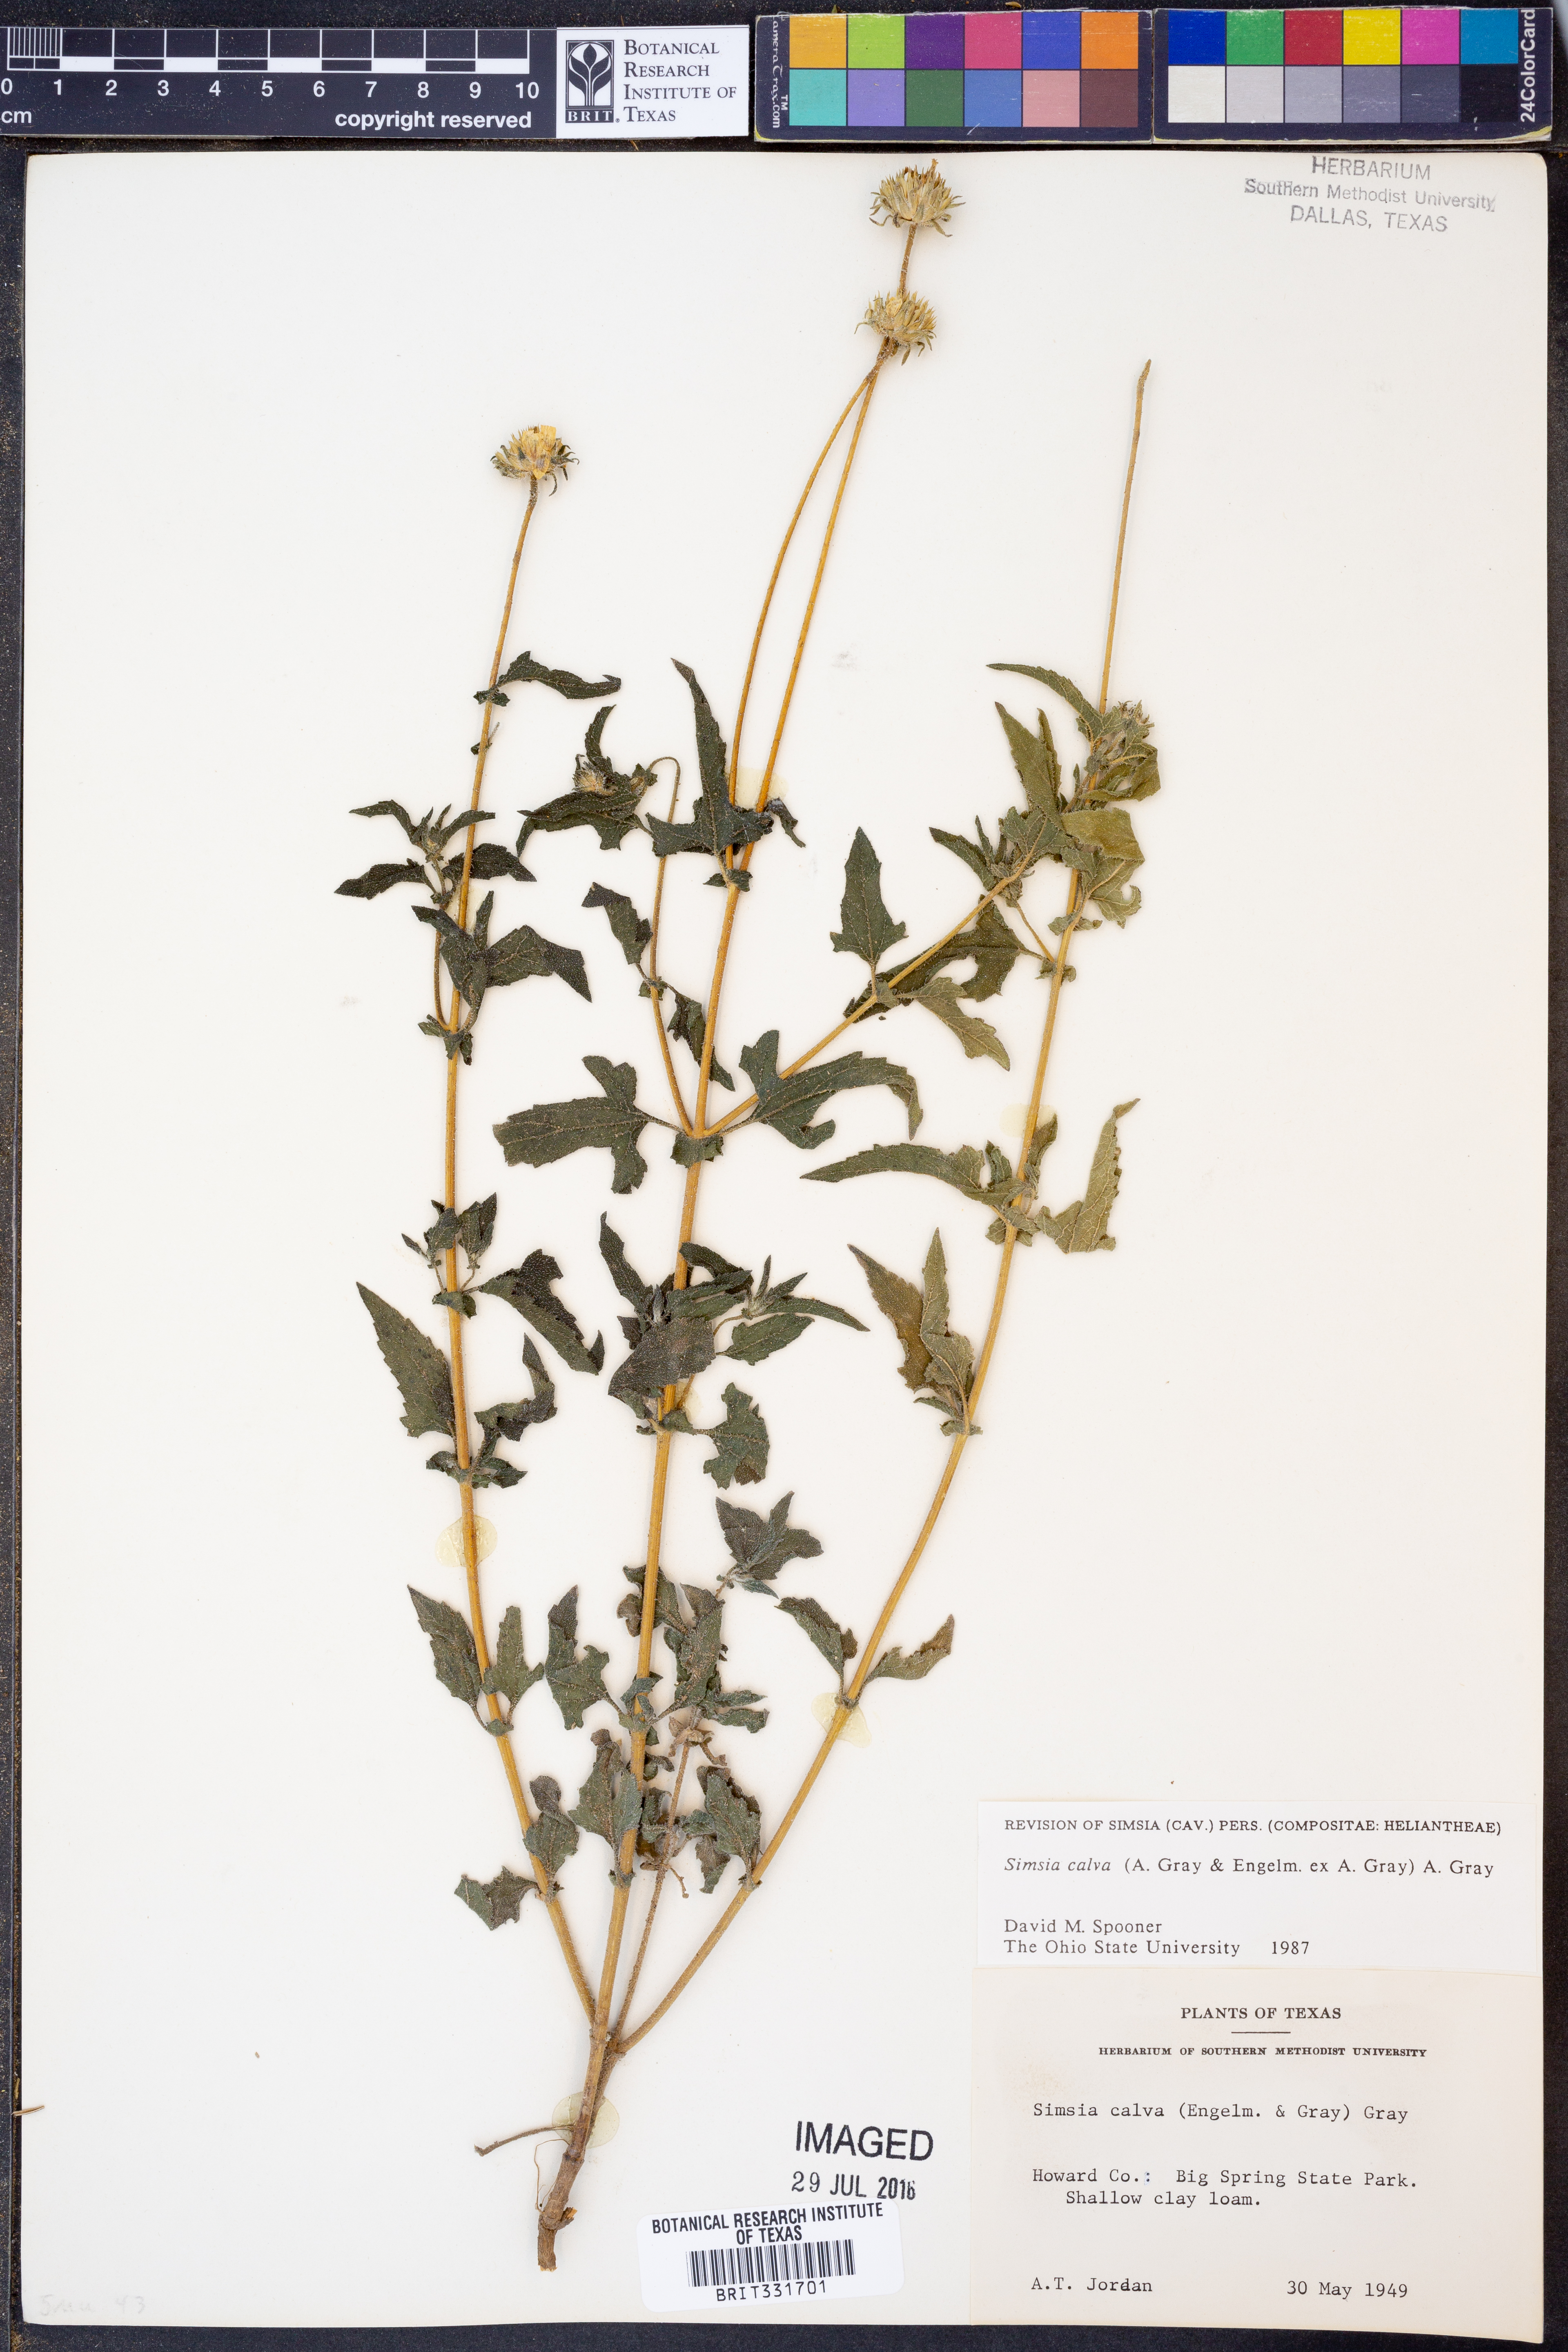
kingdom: Plantae
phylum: Tracheophyta
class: Magnoliopsida
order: Asterales
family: Asteraceae
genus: Simsia
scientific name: Simsia calva
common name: Awnless bush-sunflower
